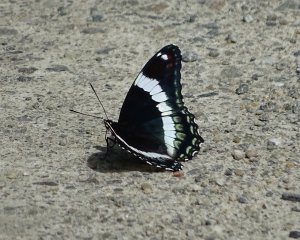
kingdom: Animalia
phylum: Arthropoda
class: Insecta
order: Lepidoptera
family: Nymphalidae
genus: Limenitis
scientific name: Limenitis arthemis
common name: Red-spotted Admiral
